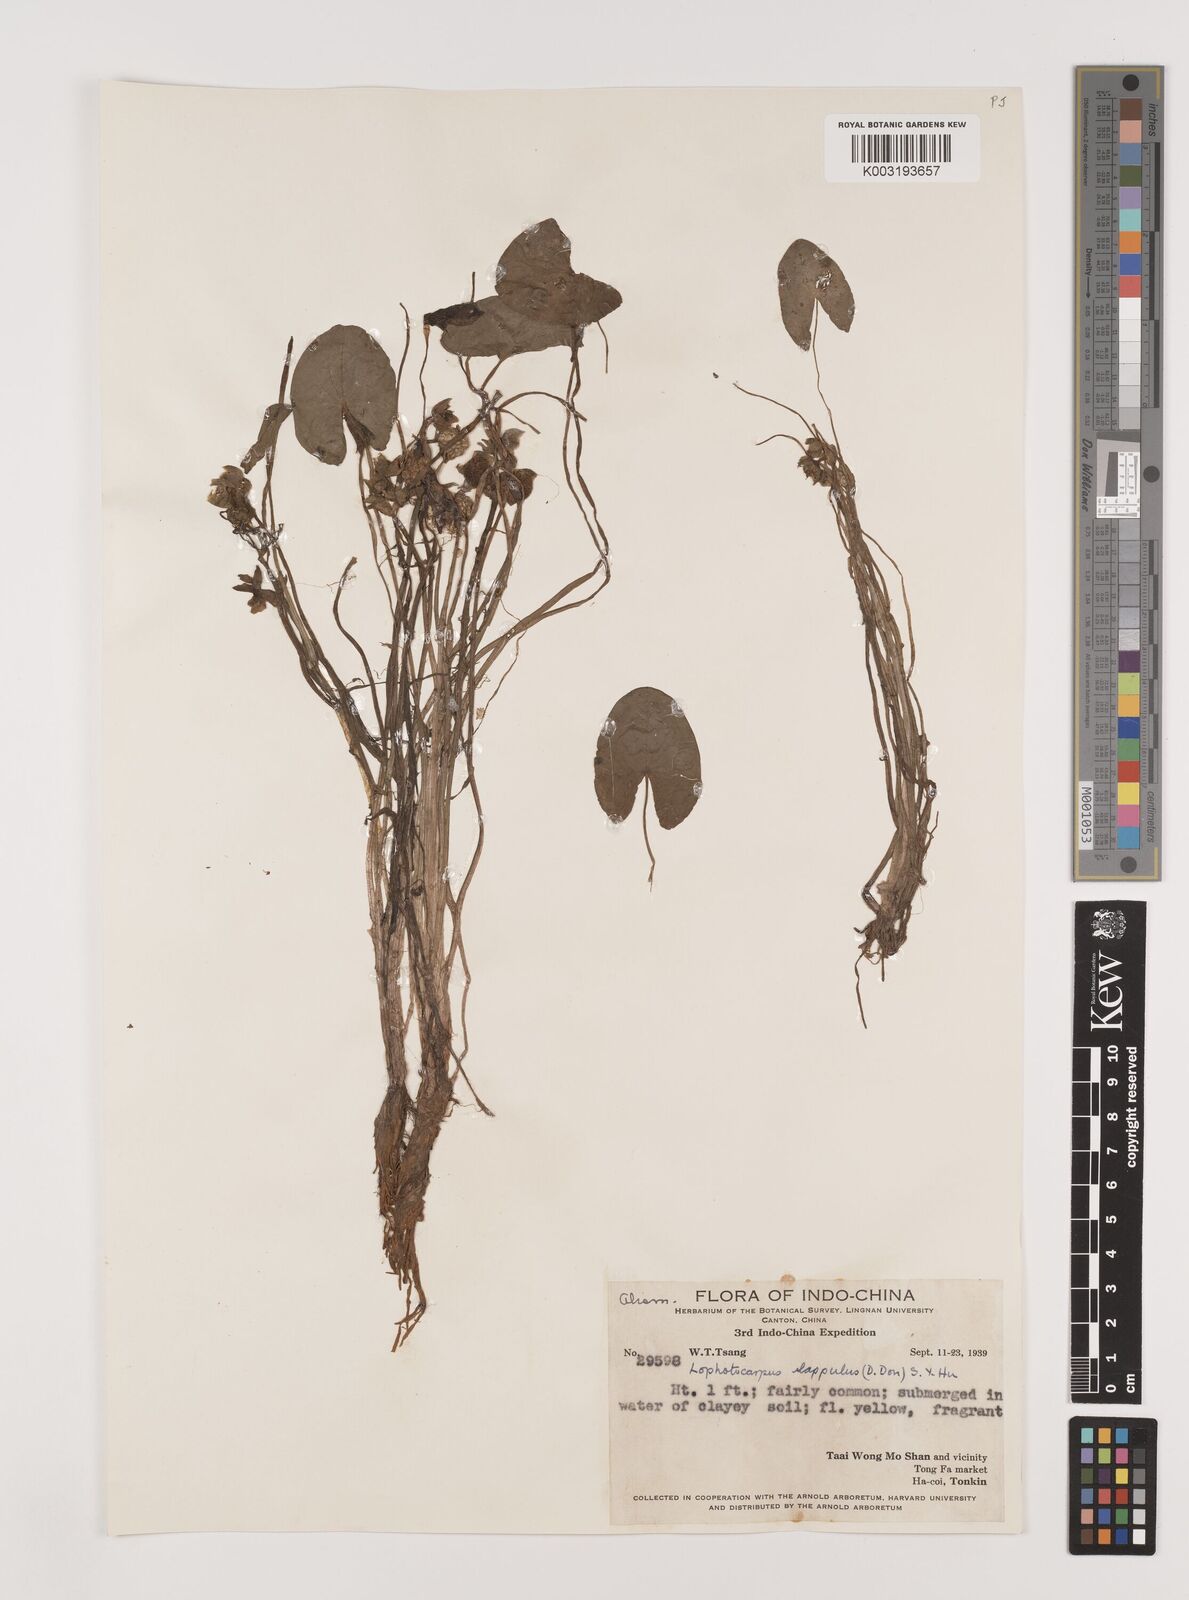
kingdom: Plantae
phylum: Tracheophyta
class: Liliopsida
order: Alismatales
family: Alismataceae
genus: Sagittaria
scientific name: Sagittaria guayanensis
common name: Guyanese arrowhead
